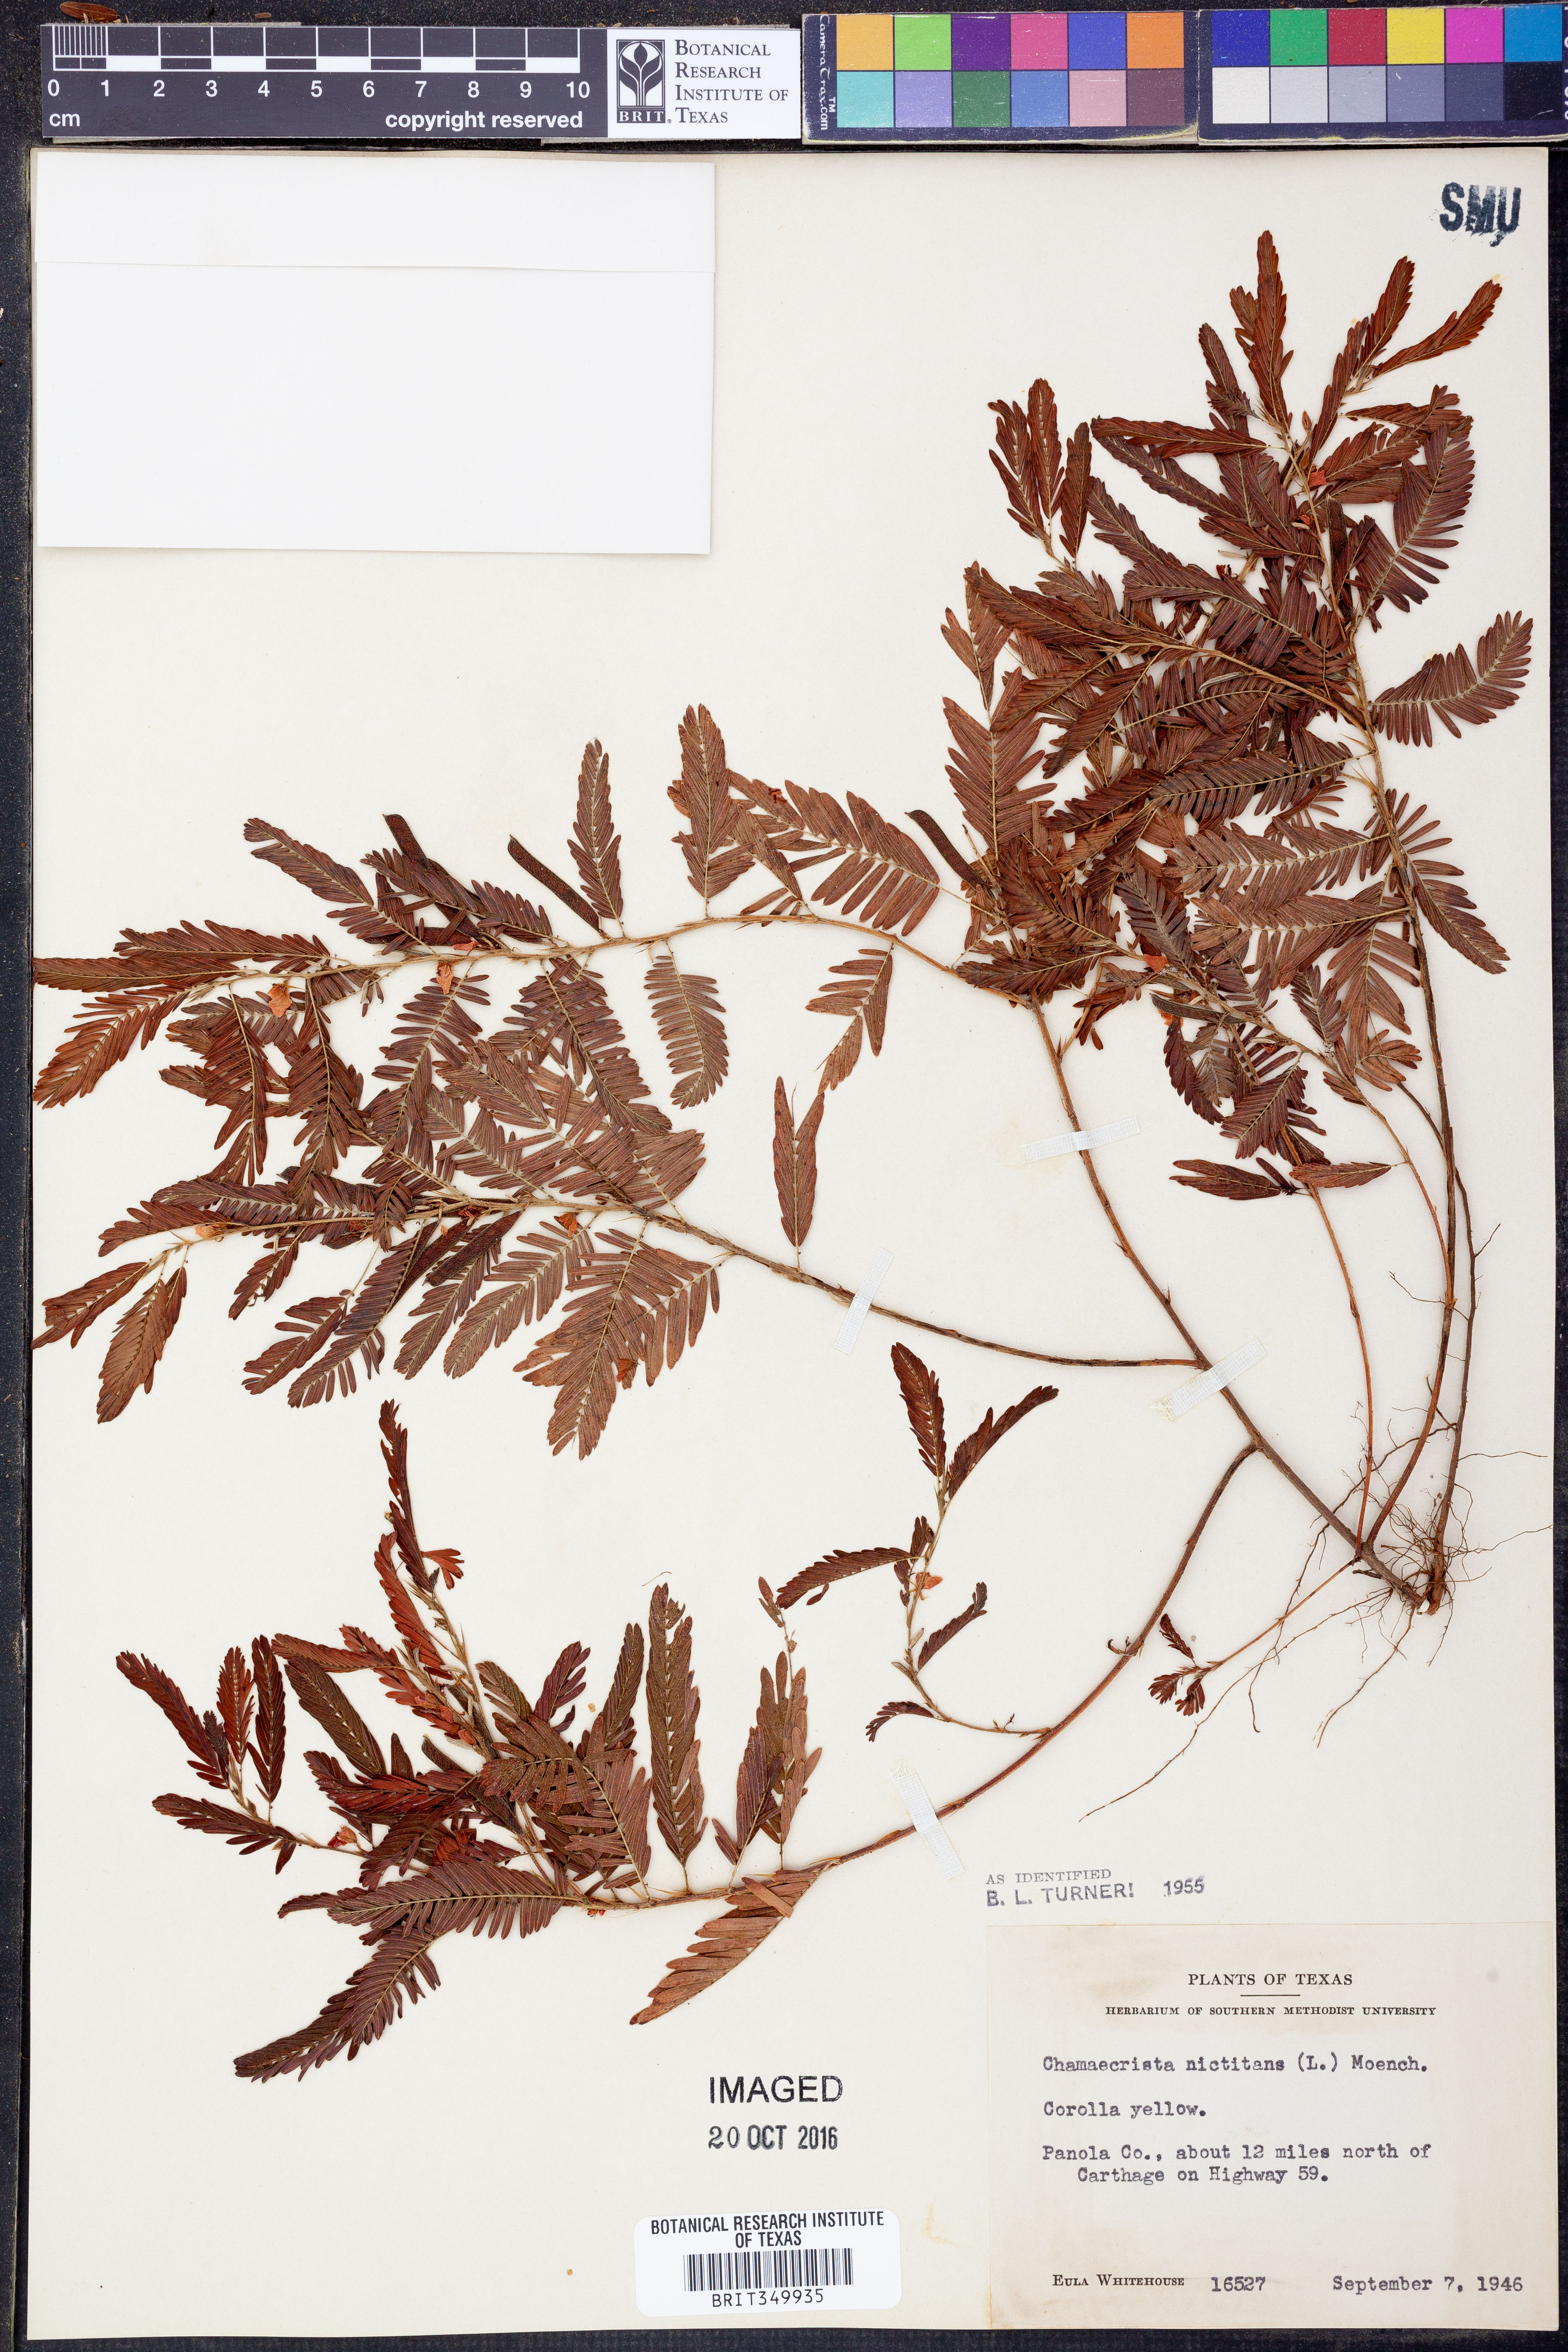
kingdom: Plantae
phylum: Tracheophyta
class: Magnoliopsida
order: Fabales
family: Fabaceae
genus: Chamaecrista
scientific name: Chamaecrista nictitans
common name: Sensitive cassia
